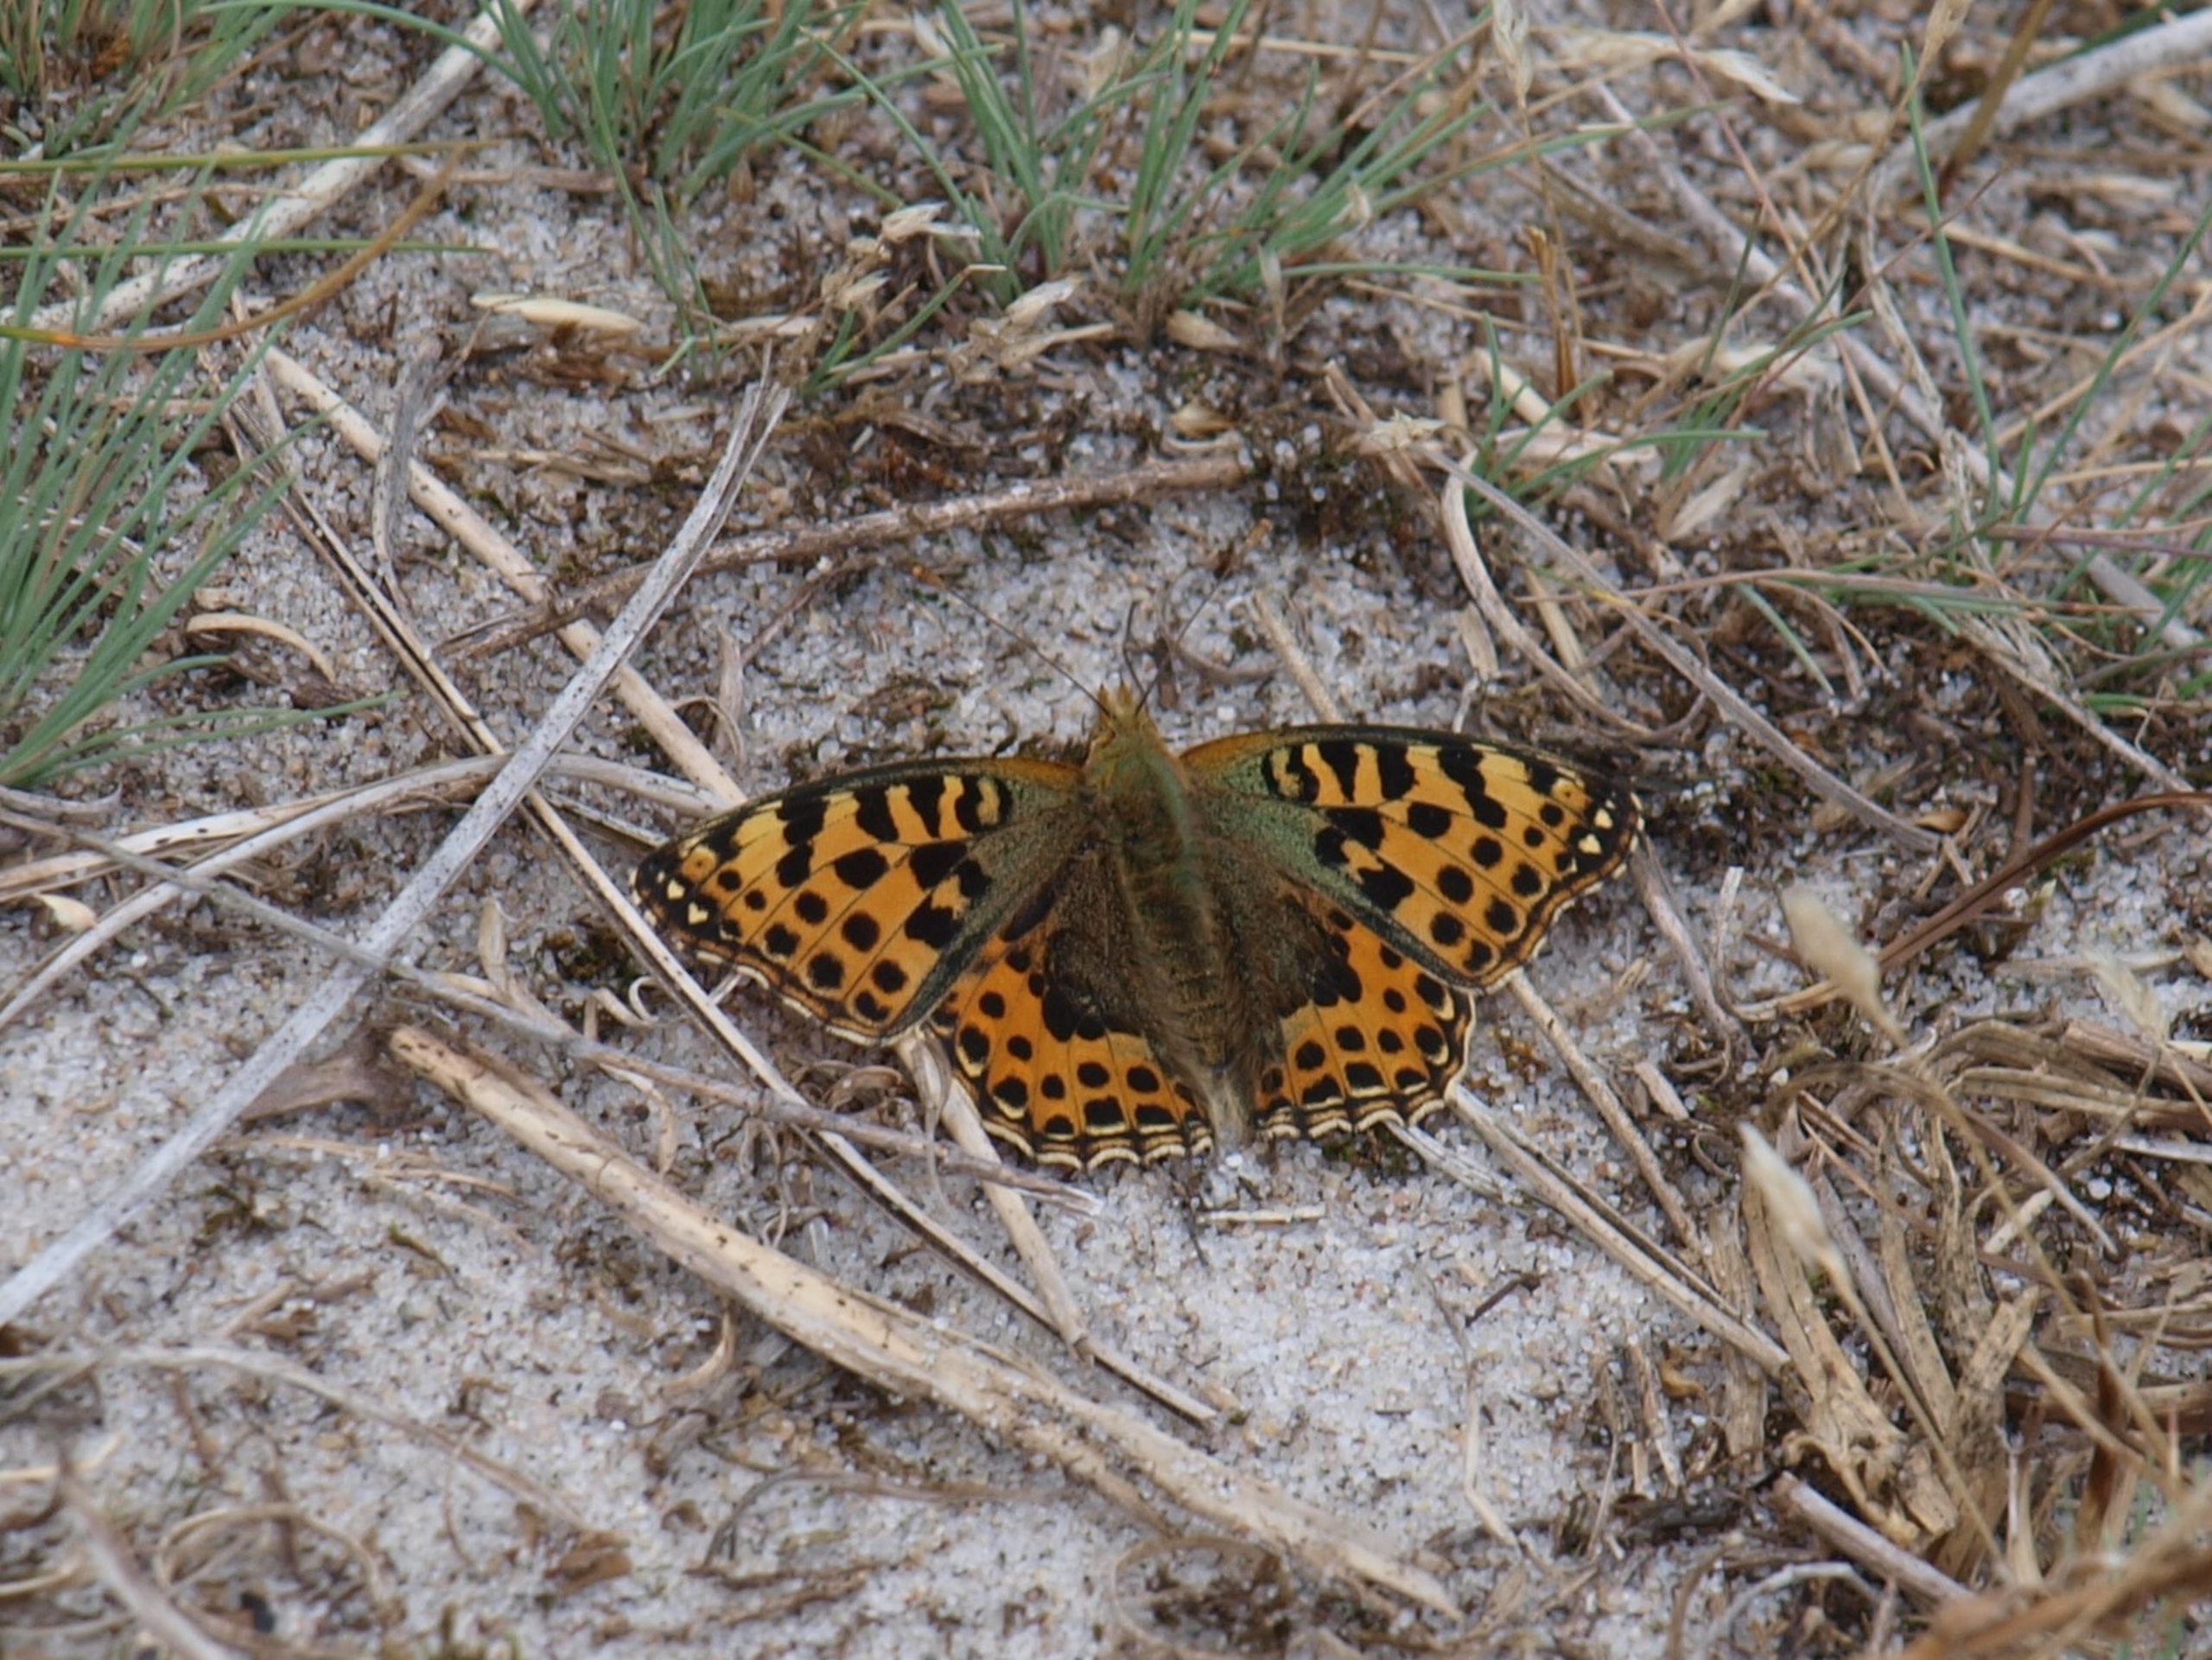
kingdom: Animalia
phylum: Arthropoda
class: Insecta
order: Lepidoptera
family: Nymphalidae
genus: Issoria
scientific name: Issoria lathonia
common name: Storplettet perlemorsommerfugl
